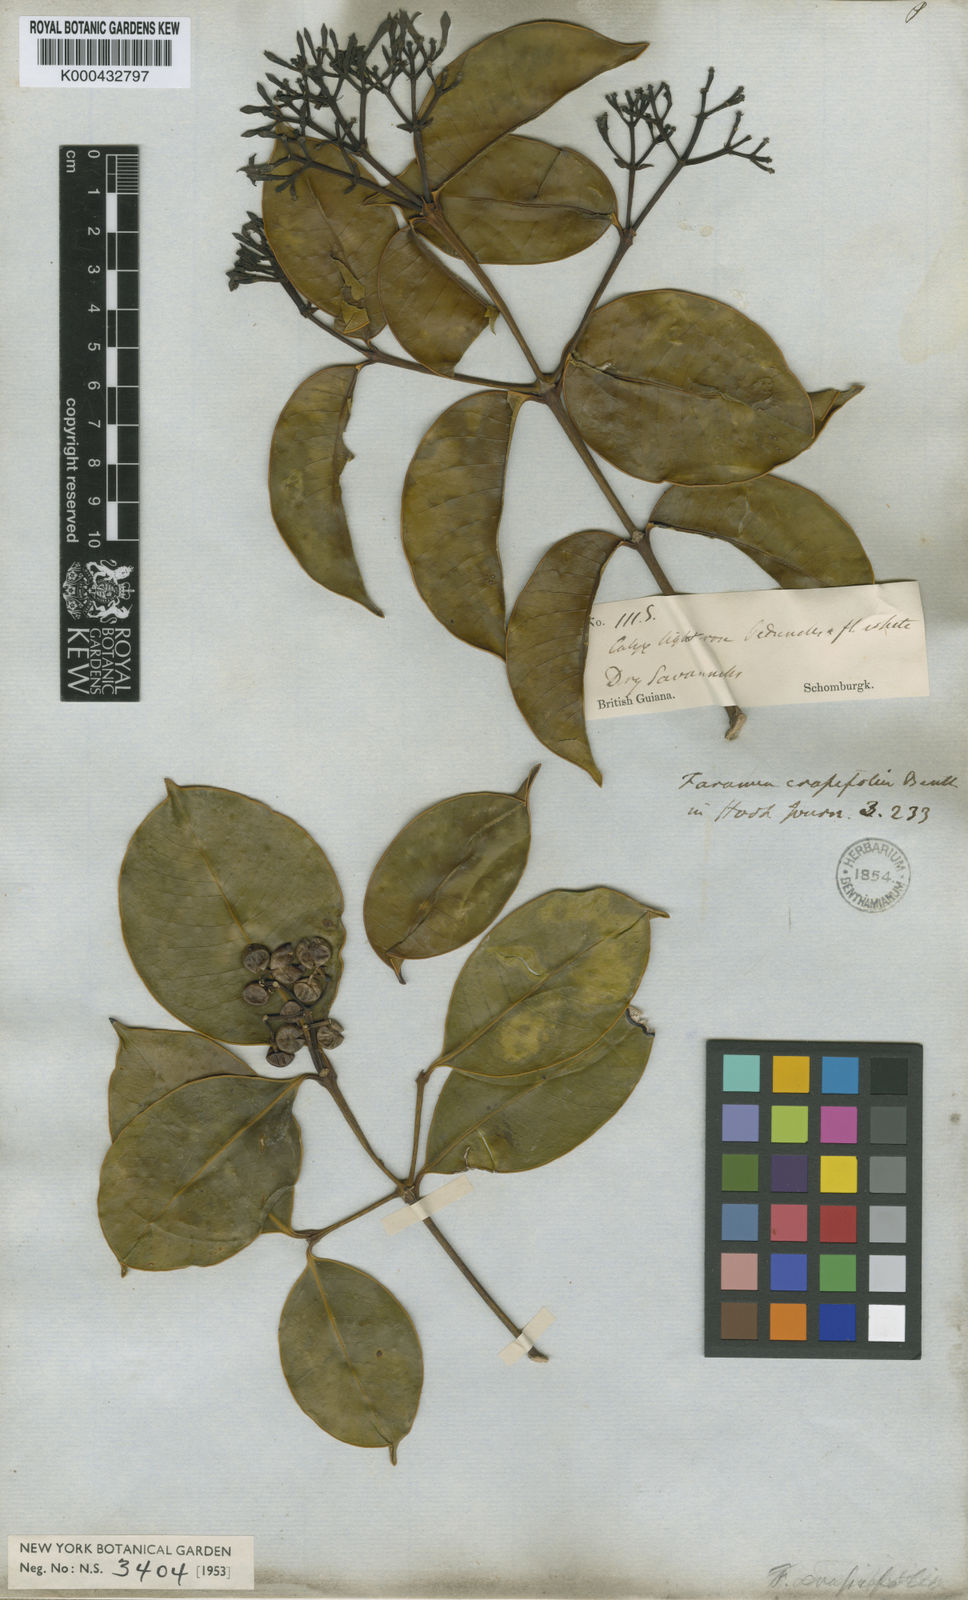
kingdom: Plantae
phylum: Tracheophyta
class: Magnoliopsida
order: Gentianales
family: Rubiaceae
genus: Faramea
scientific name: Faramea crassifolia
